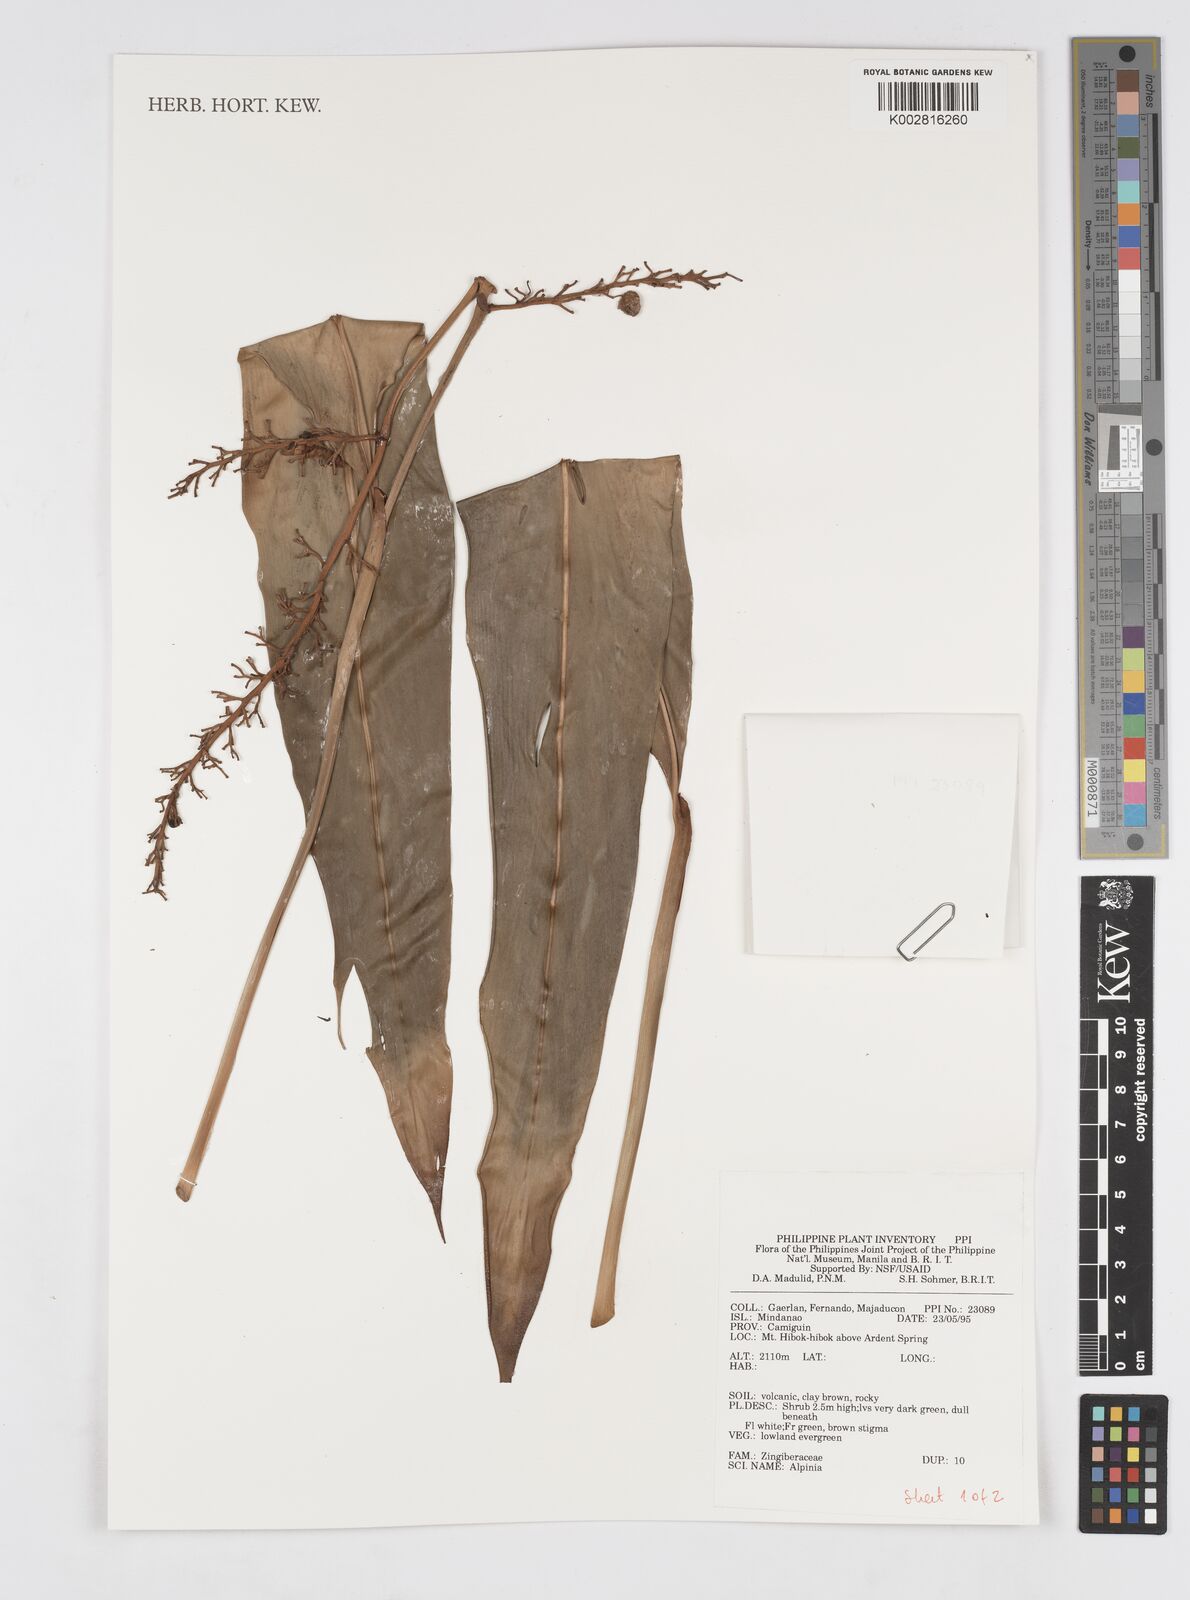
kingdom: Plantae
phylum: Tracheophyta
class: Liliopsida
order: Zingiberales
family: Zingiberaceae
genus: Alpinia
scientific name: Alpinia
